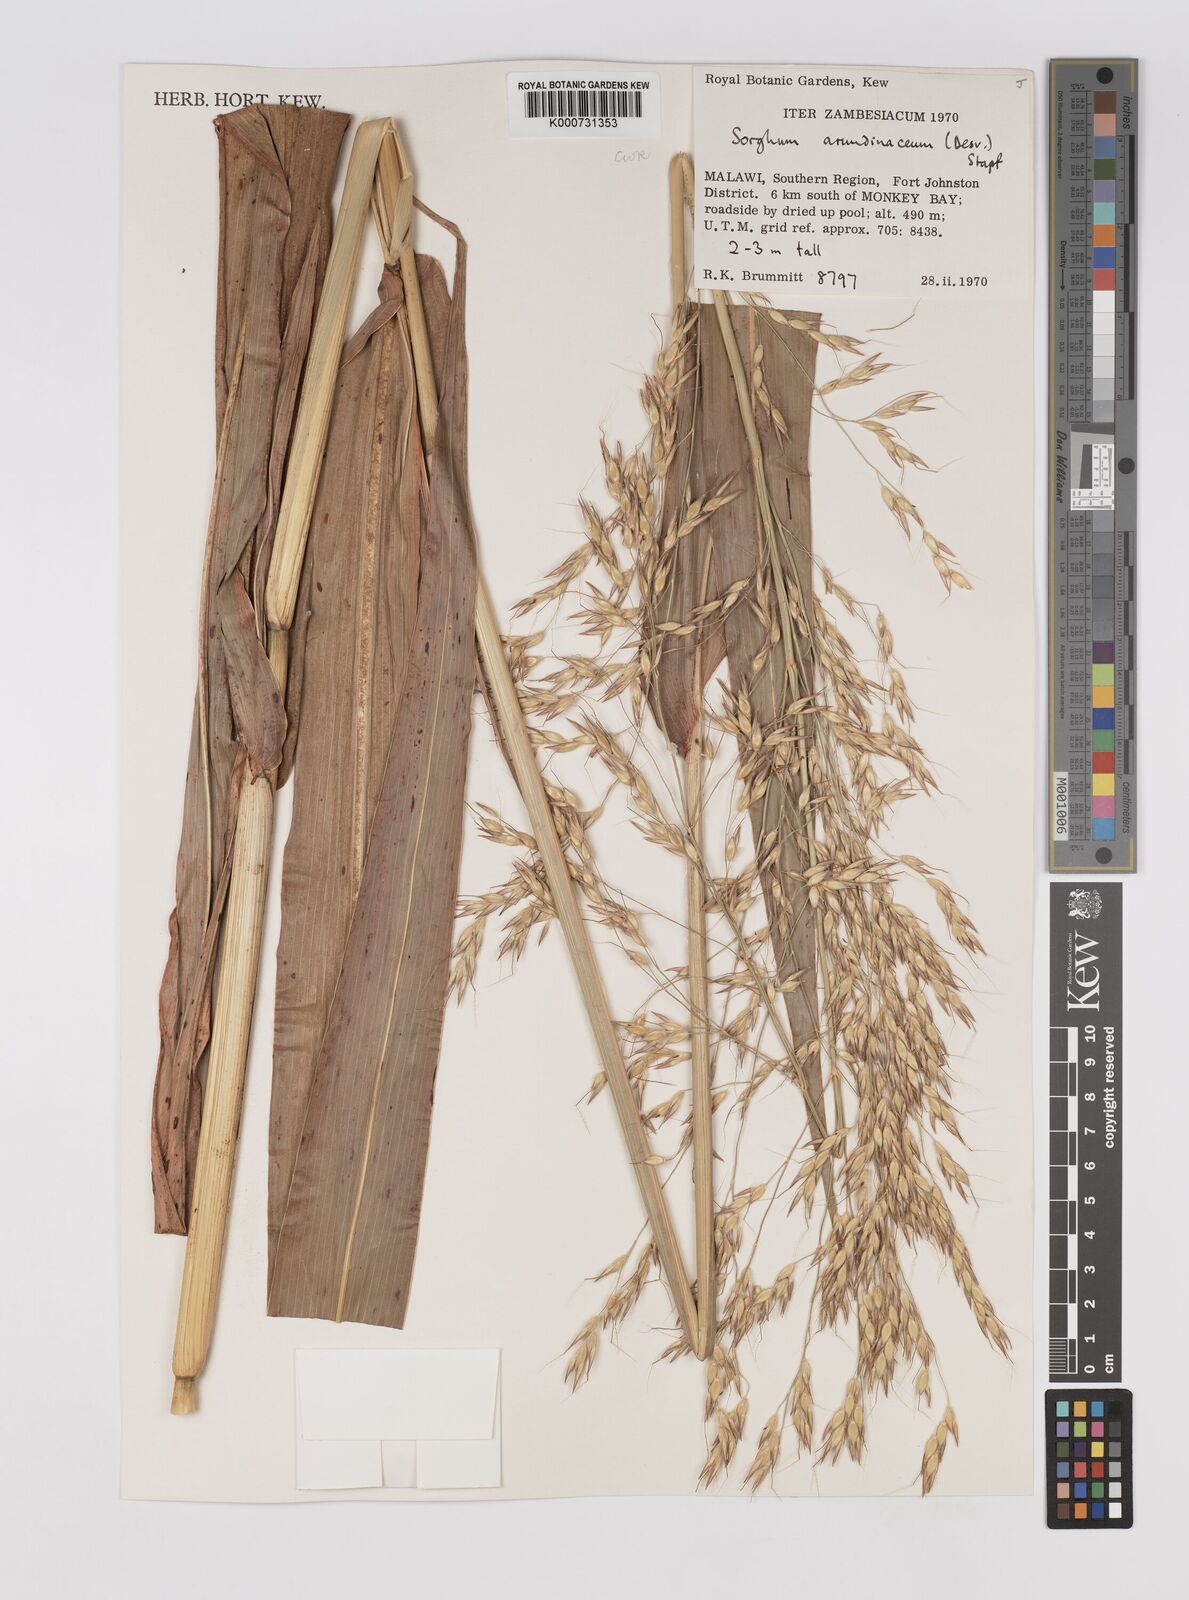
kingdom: Plantae
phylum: Tracheophyta
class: Liliopsida
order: Poales
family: Poaceae
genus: Sorghum
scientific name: Sorghum arundinaceum
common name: Sorghum
